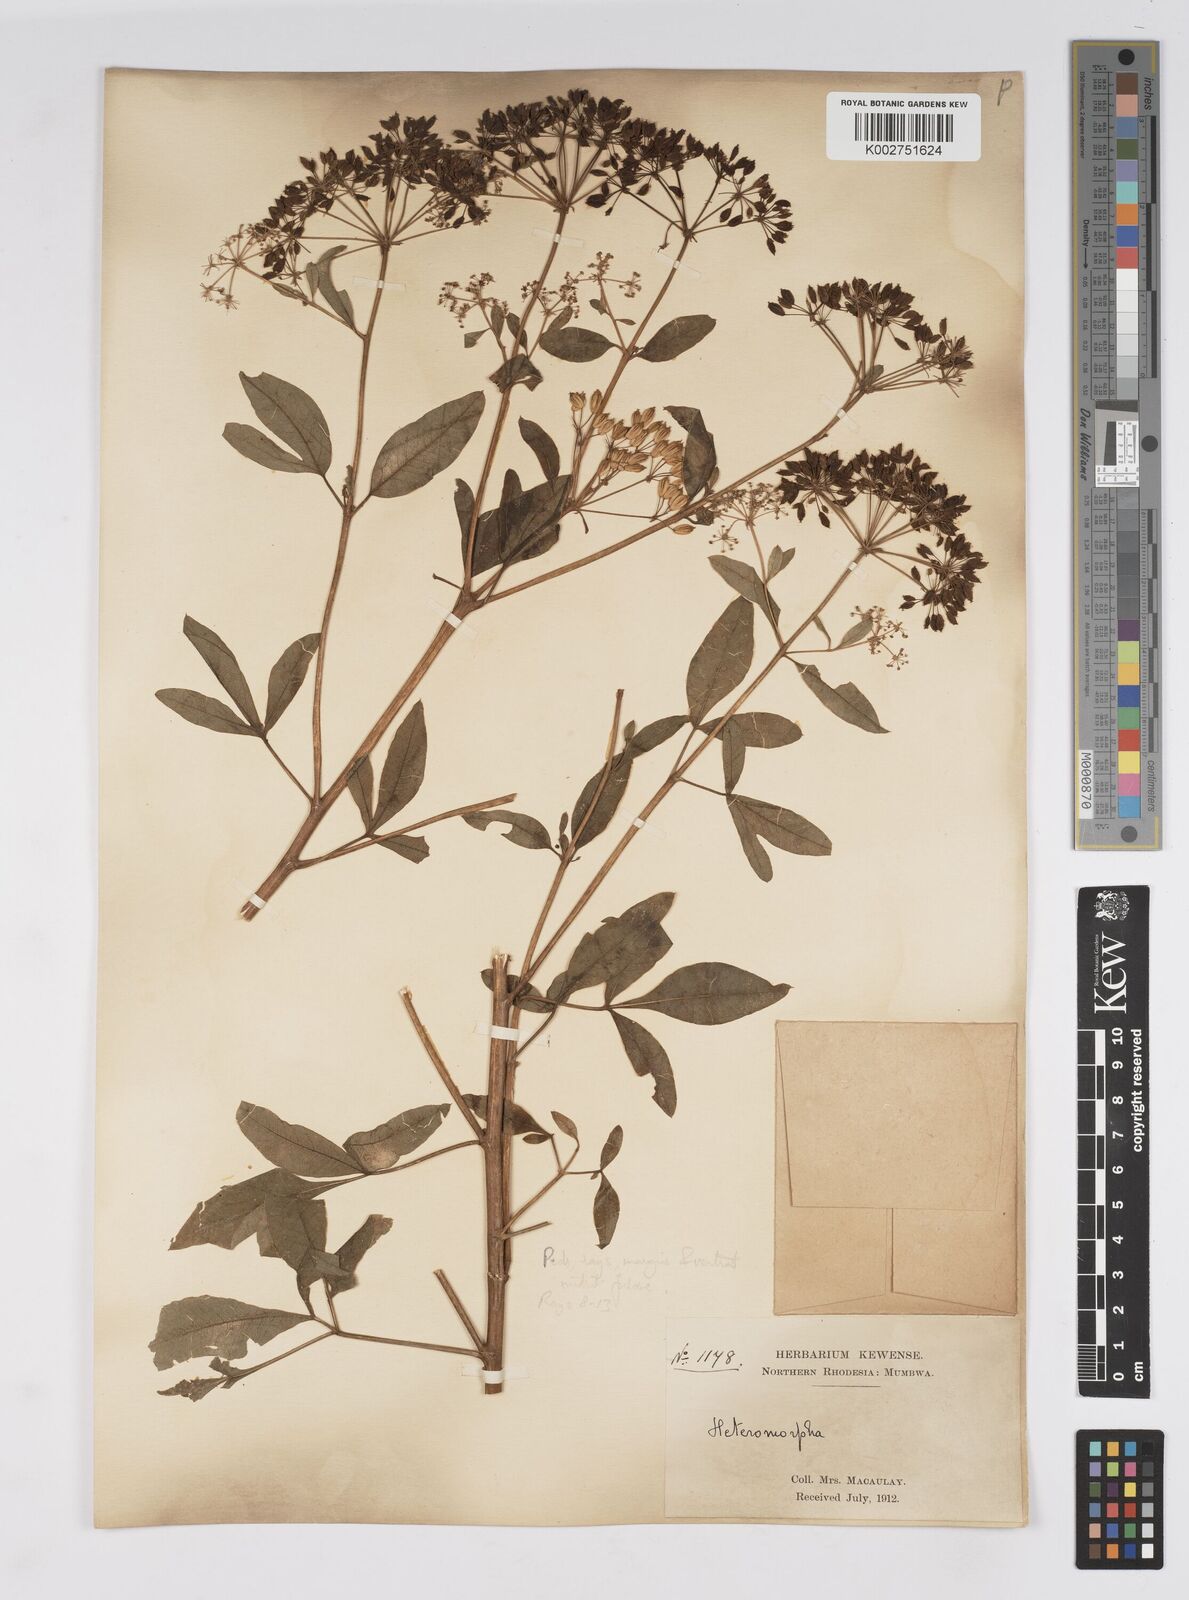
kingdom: Plantae
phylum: Tracheophyta
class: Magnoliopsida
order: Apiales
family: Apiaceae
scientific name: Apiaceae
